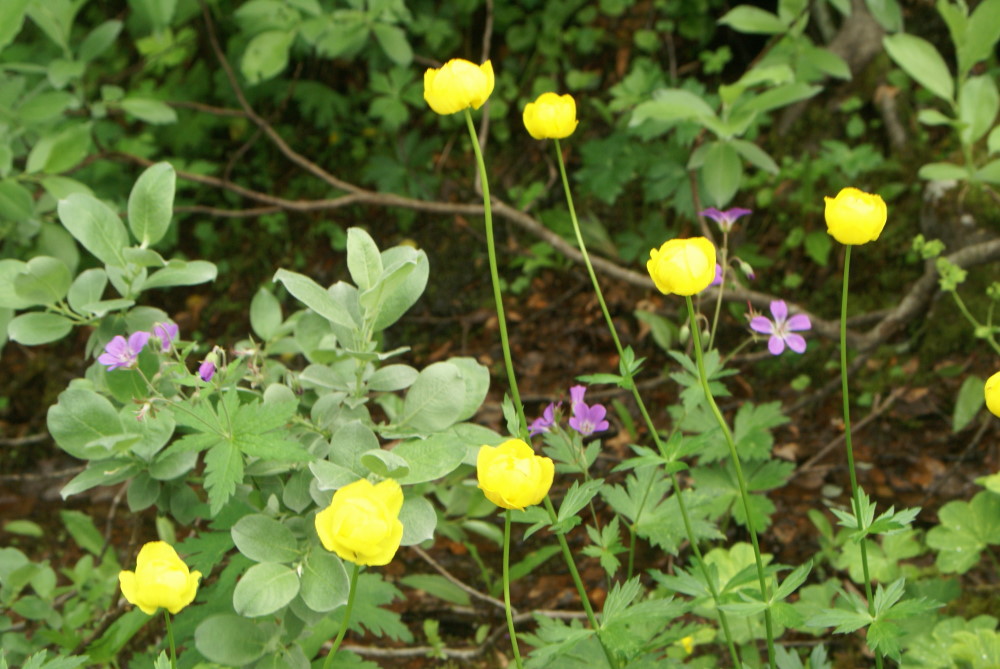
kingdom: Plantae
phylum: Tracheophyta
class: Magnoliopsida
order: Ranunculales
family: Ranunculaceae
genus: Trollius
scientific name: Trollius europaeus
